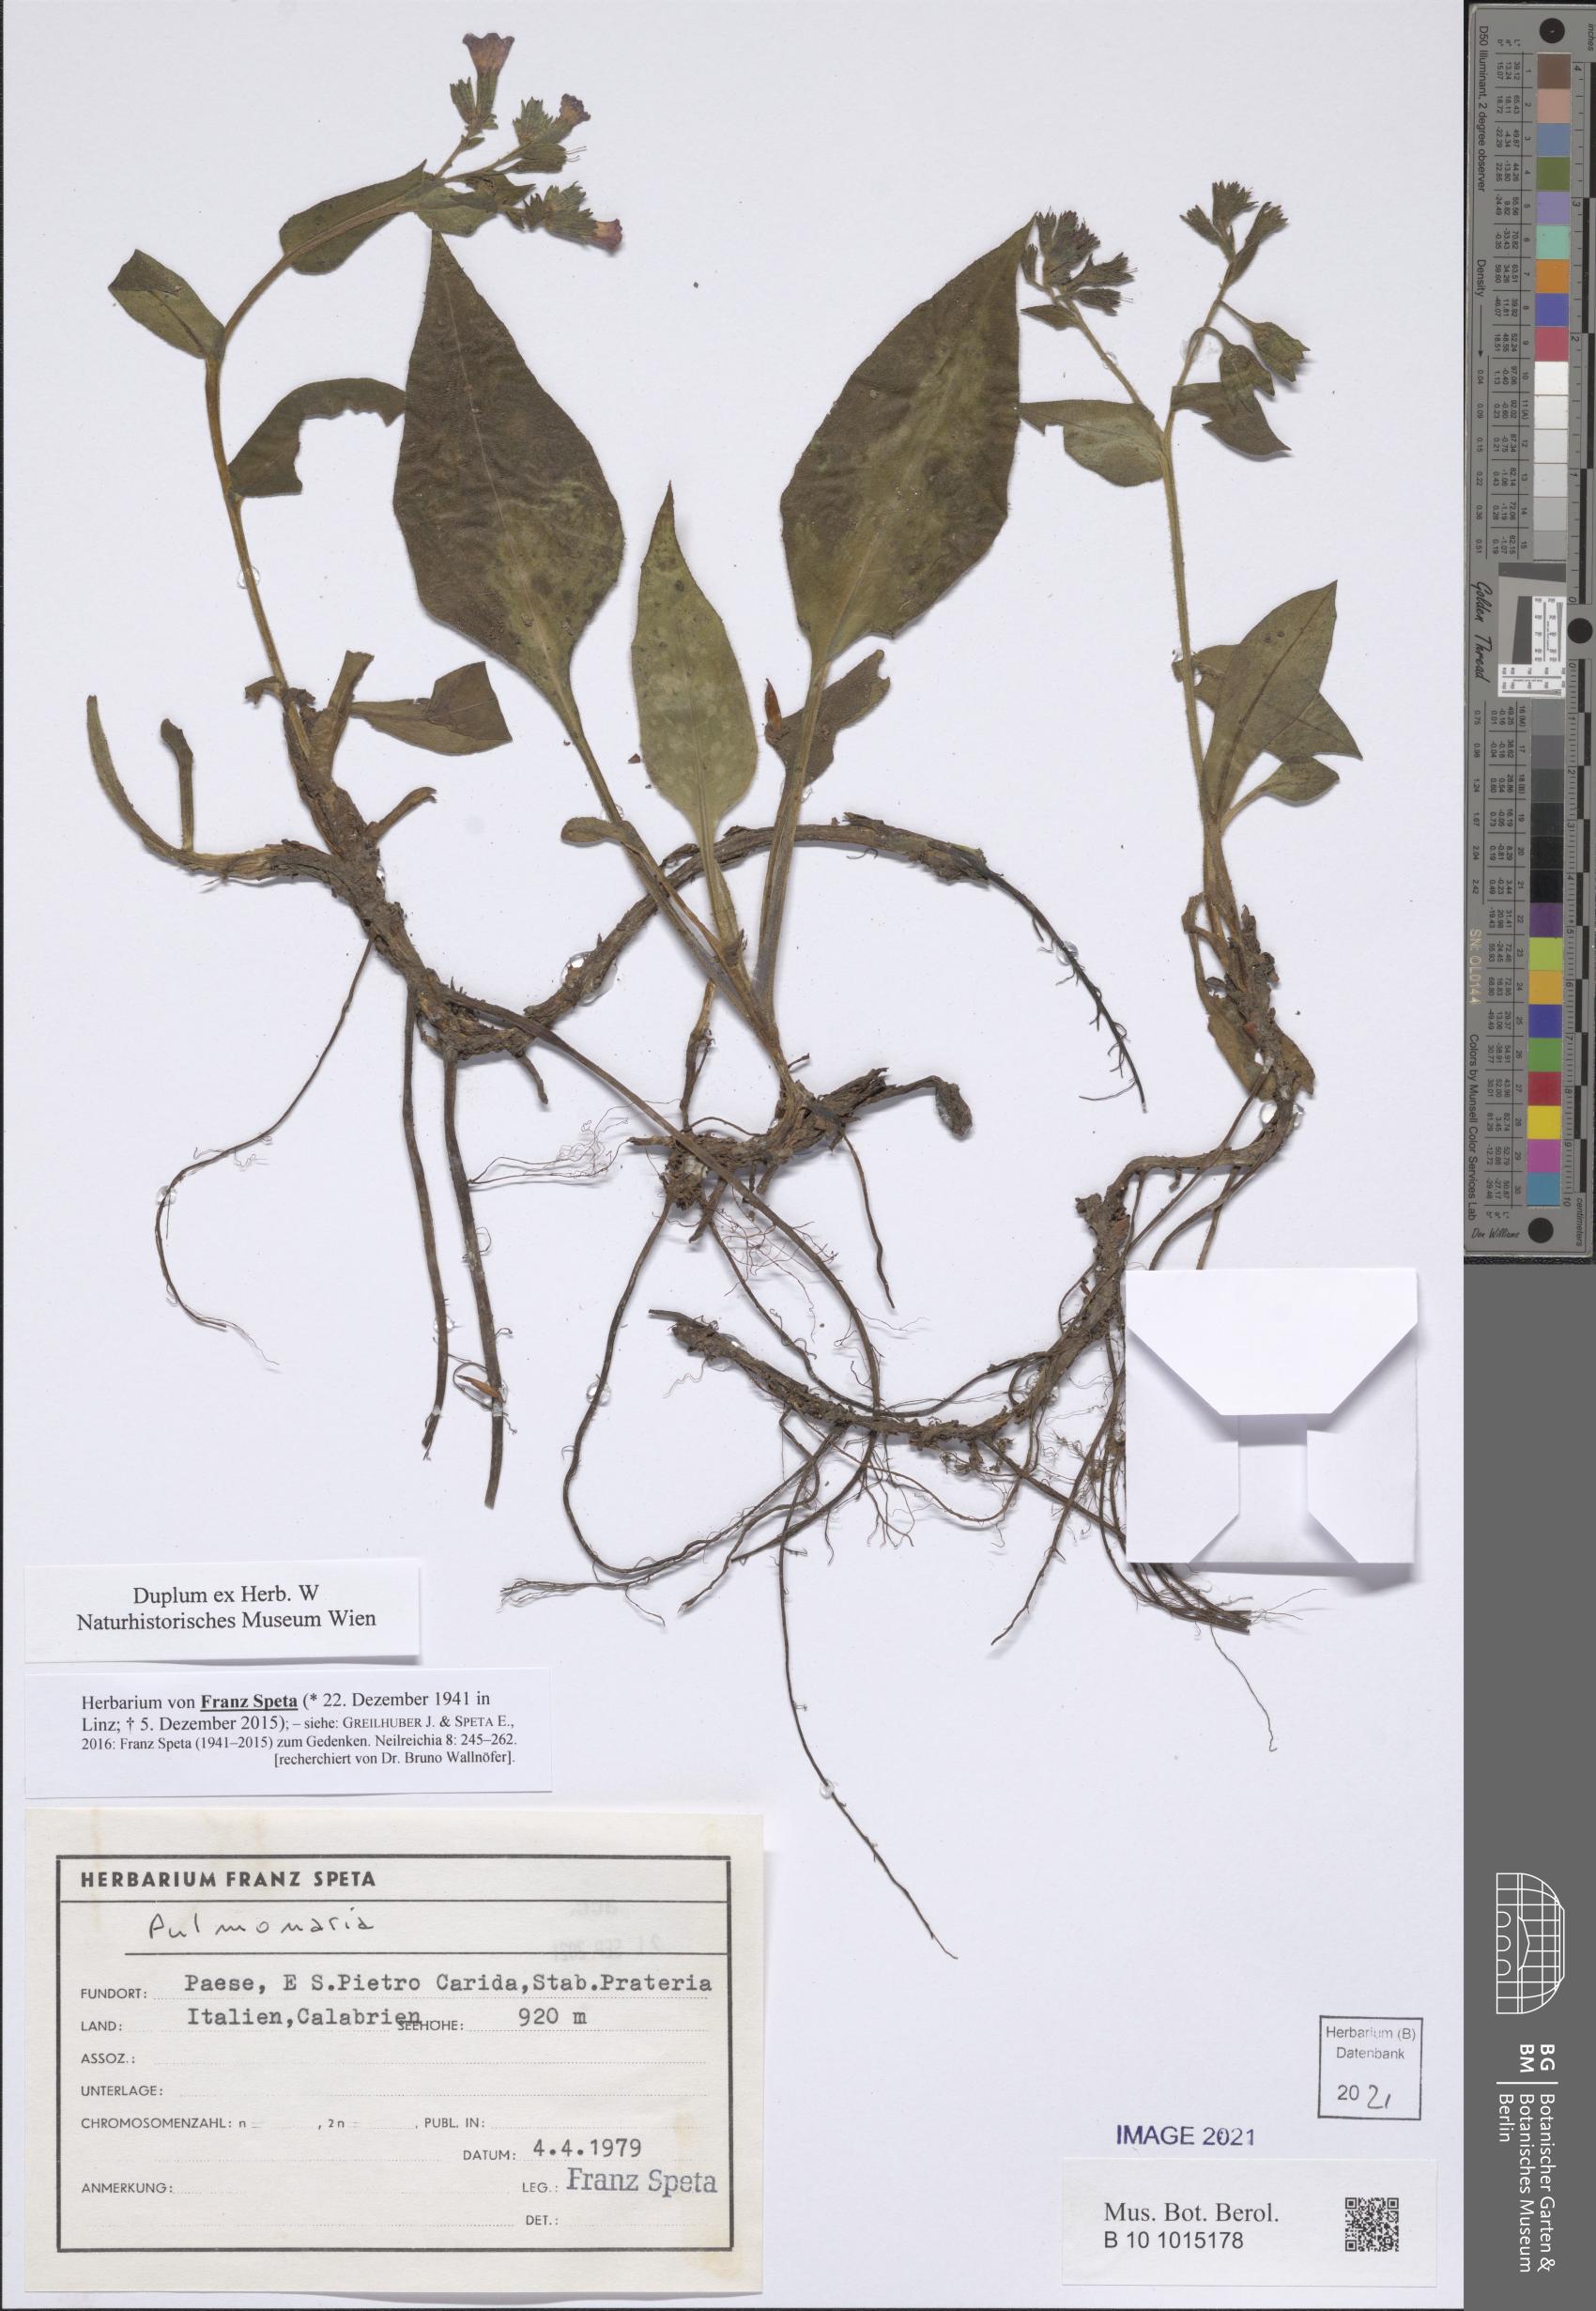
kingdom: Plantae
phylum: Tracheophyta
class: Magnoliopsida
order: Boraginales
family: Boraginaceae
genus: Pulmonaria
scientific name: Pulmonaria
